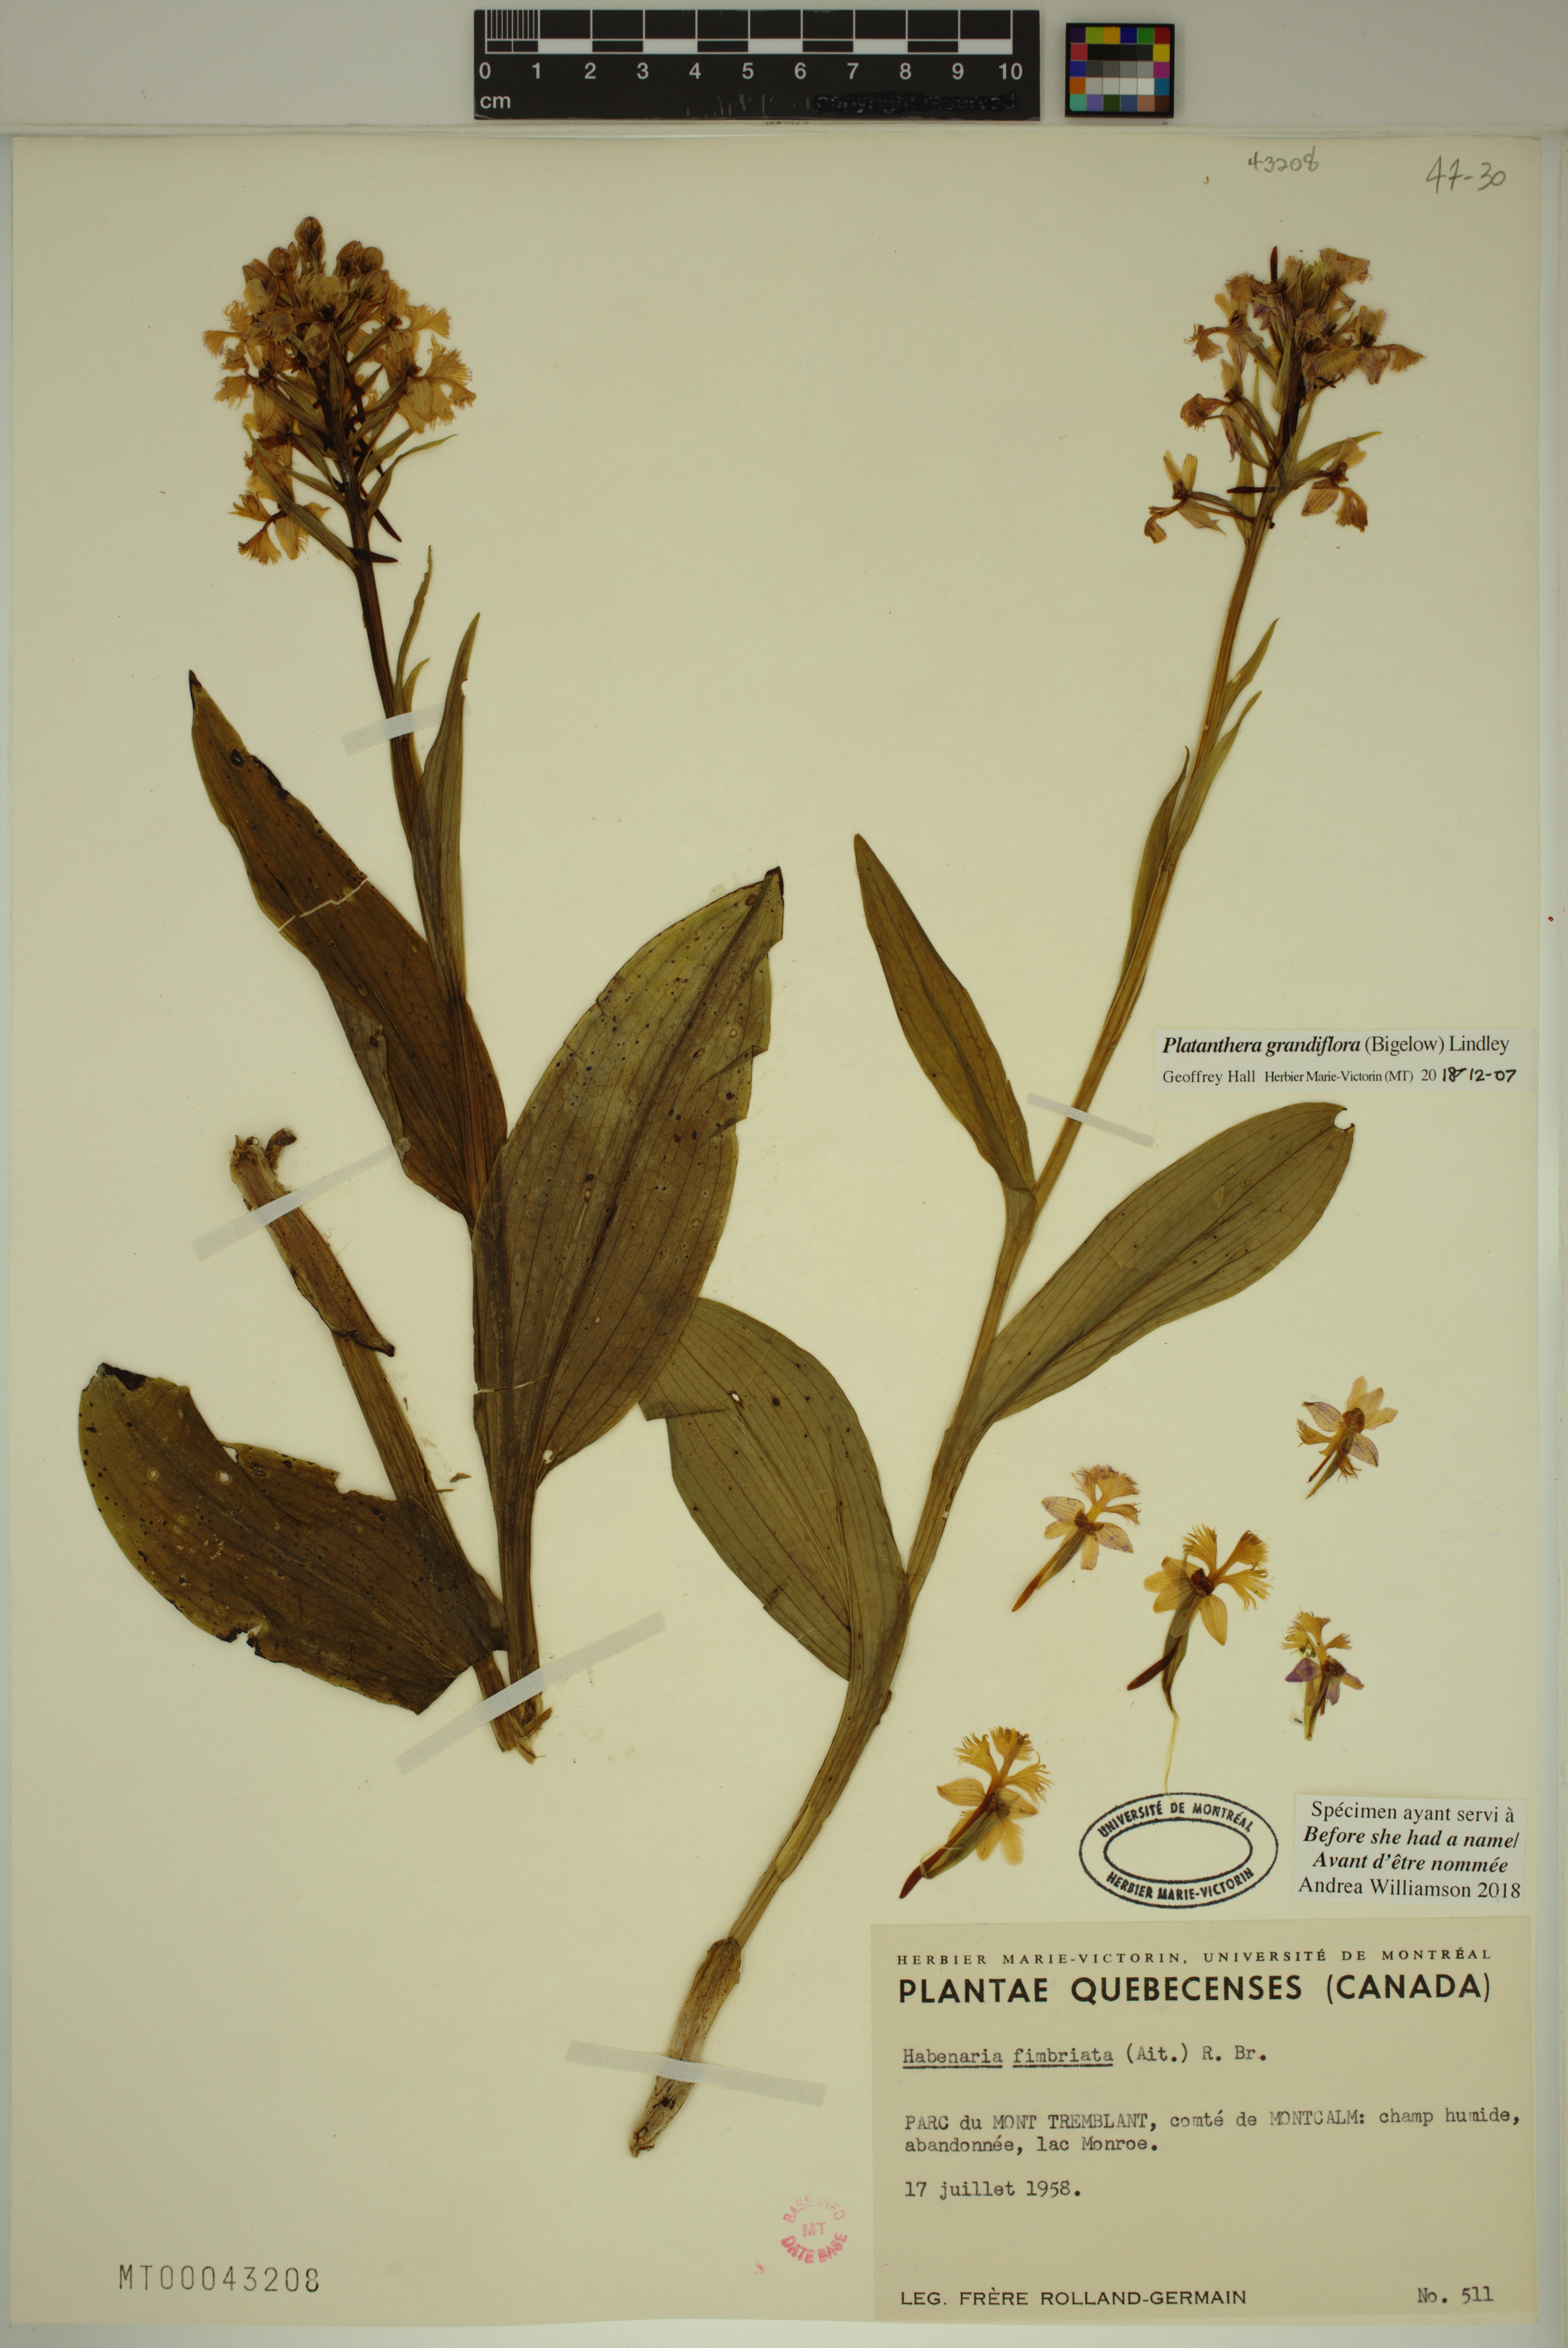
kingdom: Plantae
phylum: Tracheophyta
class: Liliopsida
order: Asparagales
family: Orchidaceae
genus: Platanthera
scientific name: Platanthera grandiflora
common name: Greater purple fringed orchid
